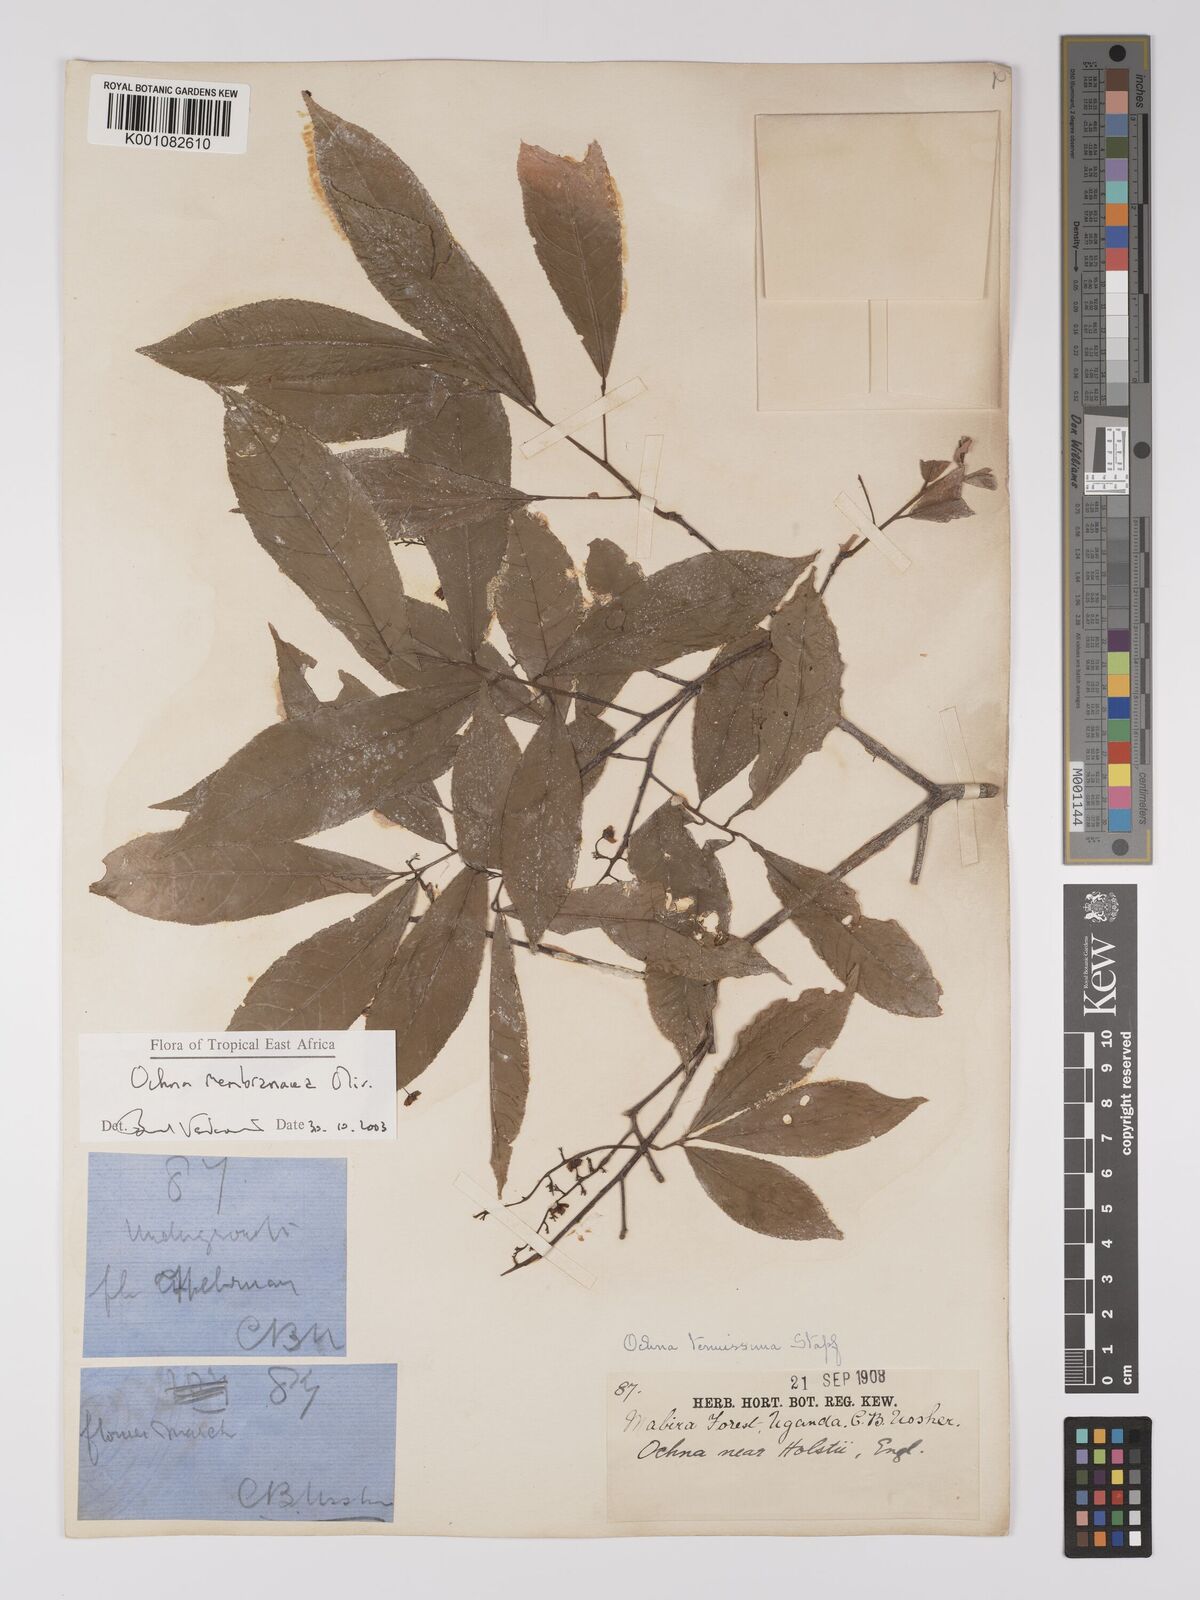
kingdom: Plantae
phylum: Tracheophyta
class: Magnoliopsida
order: Malpighiales
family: Ochnaceae
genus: Ochna
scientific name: Ochna membranacea
